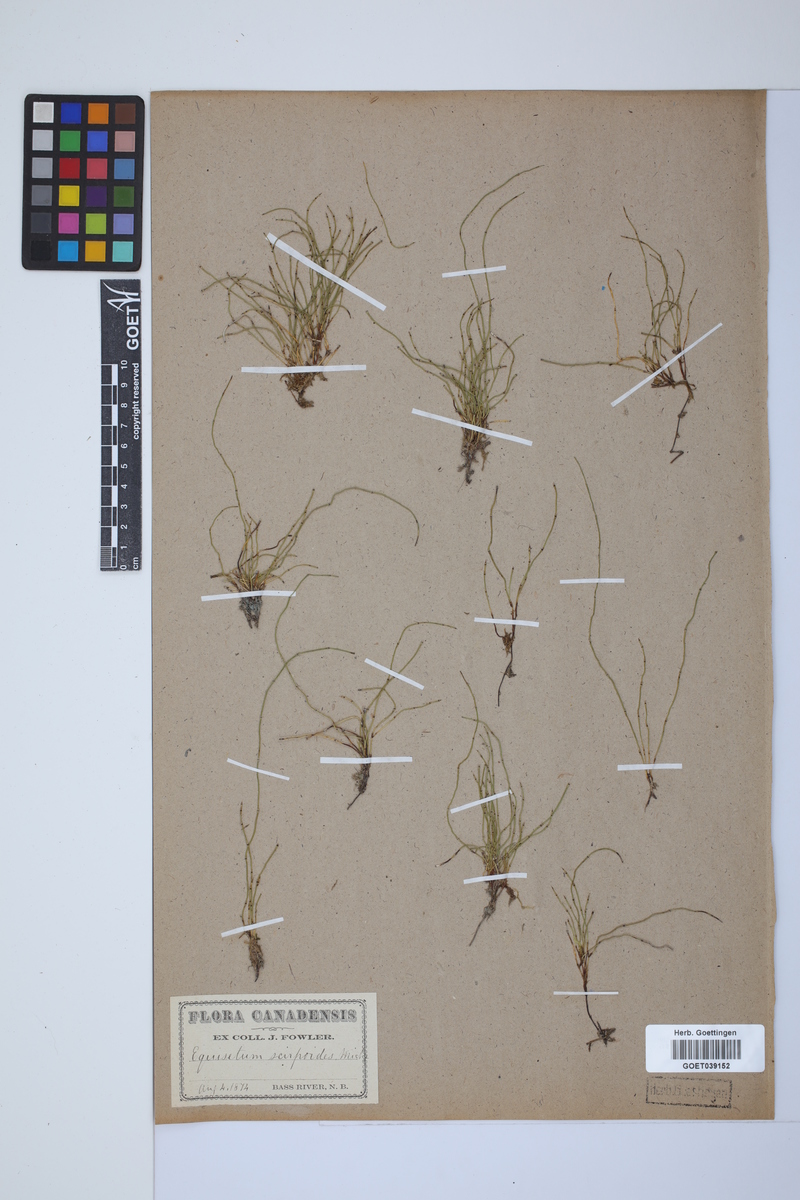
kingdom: Plantae
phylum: Tracheophyta
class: Polypodiopsida
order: Equisetales
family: Equisetaceae
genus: Equisetum
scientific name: Equisetum scirpoides
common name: Delicate horsetail
